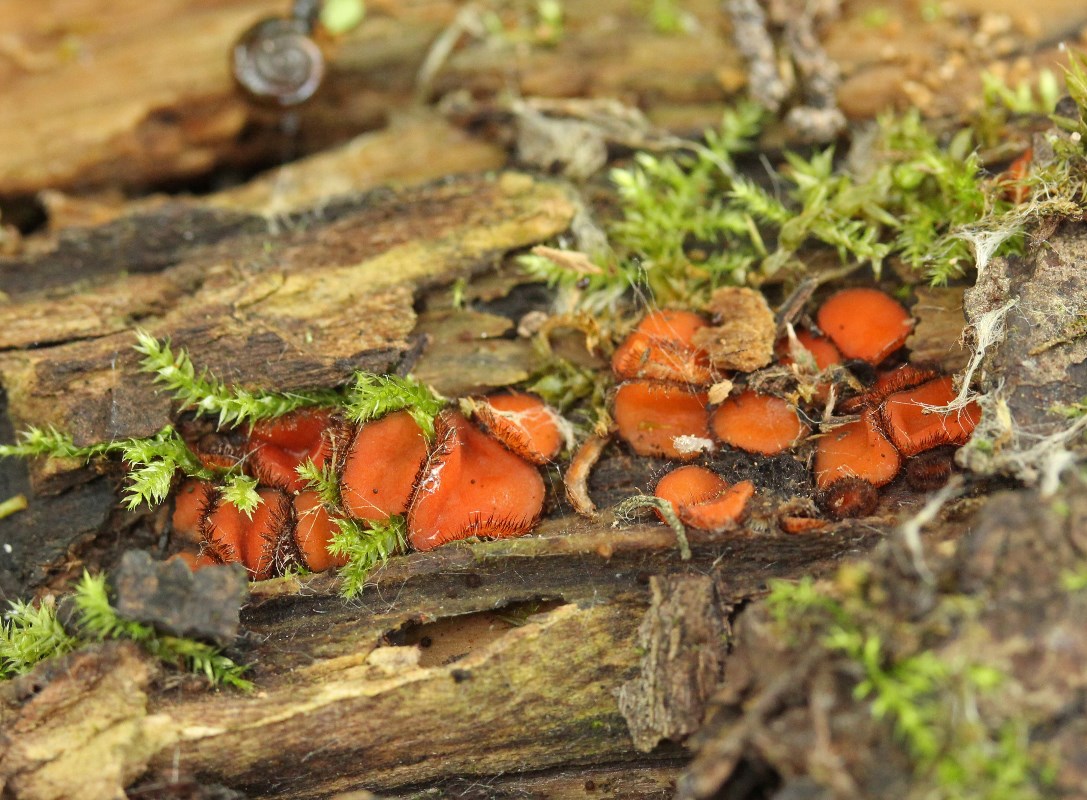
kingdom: Fungi
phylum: Ascomycota
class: Pezizomycetes
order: Pezizales
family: Pyronemataceae
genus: Scutellinia
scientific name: Scutellinia scutellata
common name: frynset skjoldbæger
